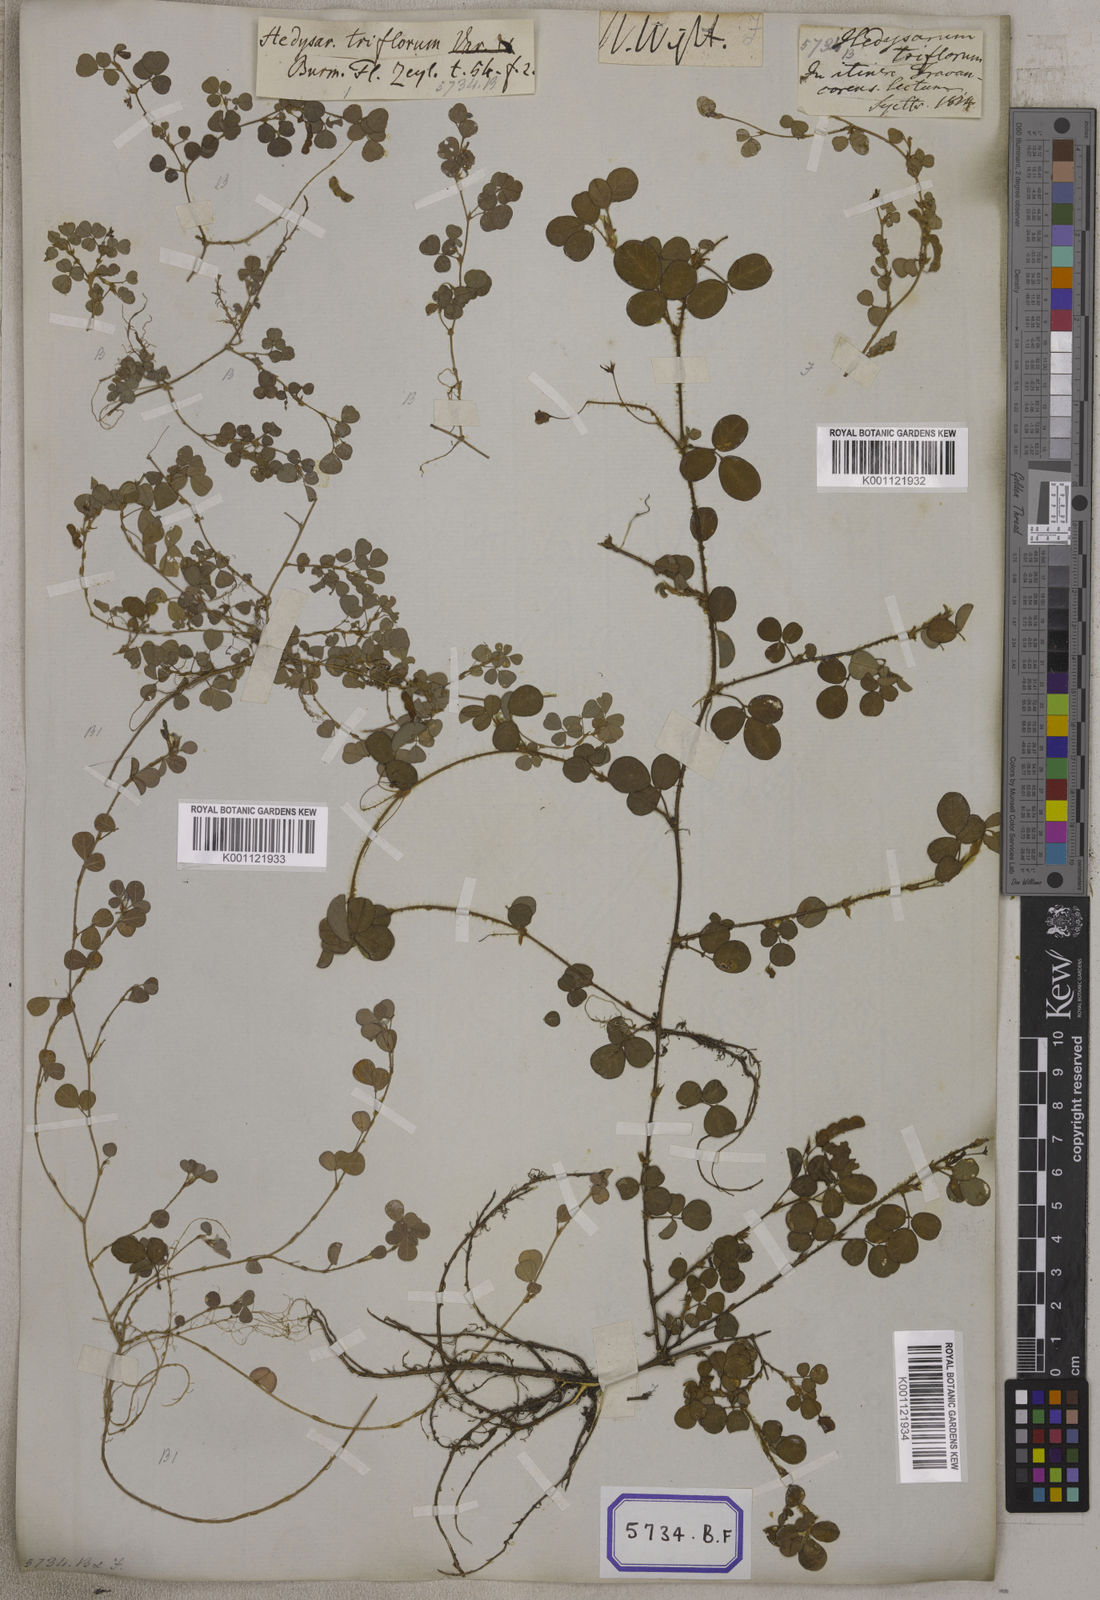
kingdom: Plantae
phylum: Tracheophyta
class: Magnoliopsida
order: Fabales
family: Fabaceae
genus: Desmodium
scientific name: Desmodium
